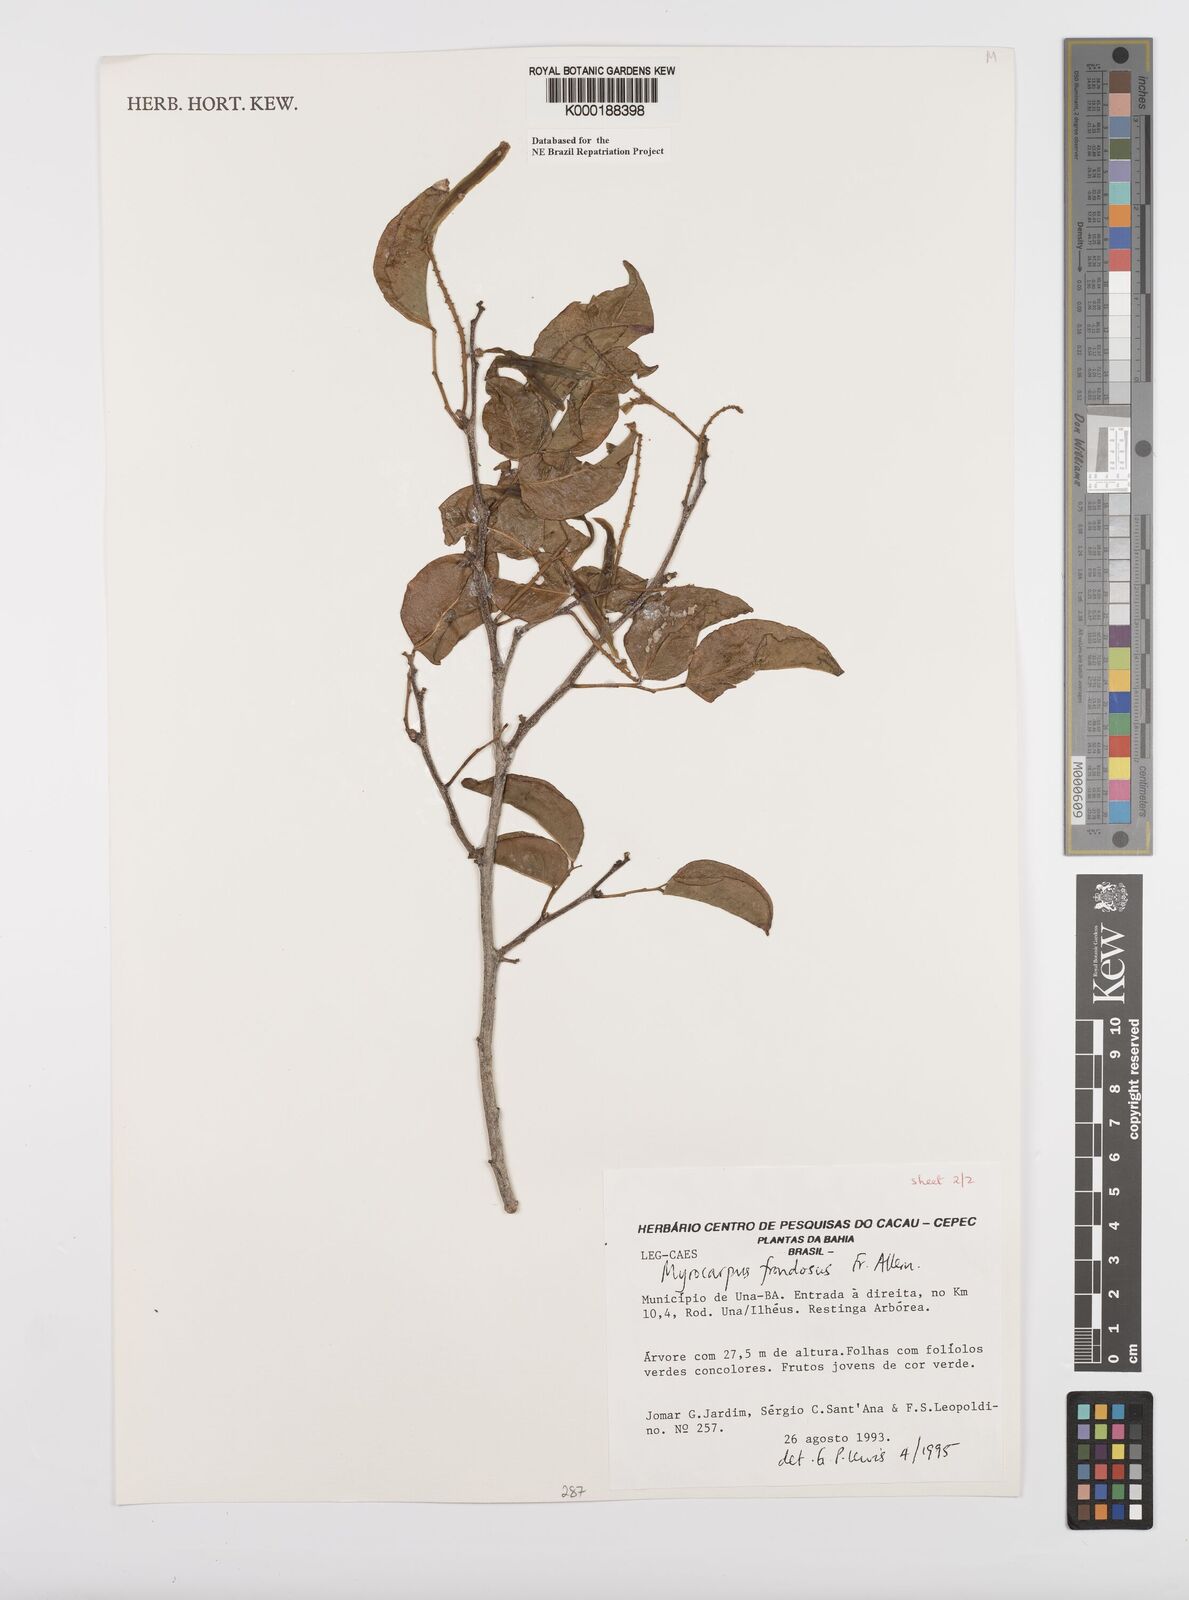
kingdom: Plantae
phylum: Tracheophyta
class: Magnoliopsida
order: Fabales
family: Fabaceae
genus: Myrocarpus
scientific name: Myrocarpus frondosus
